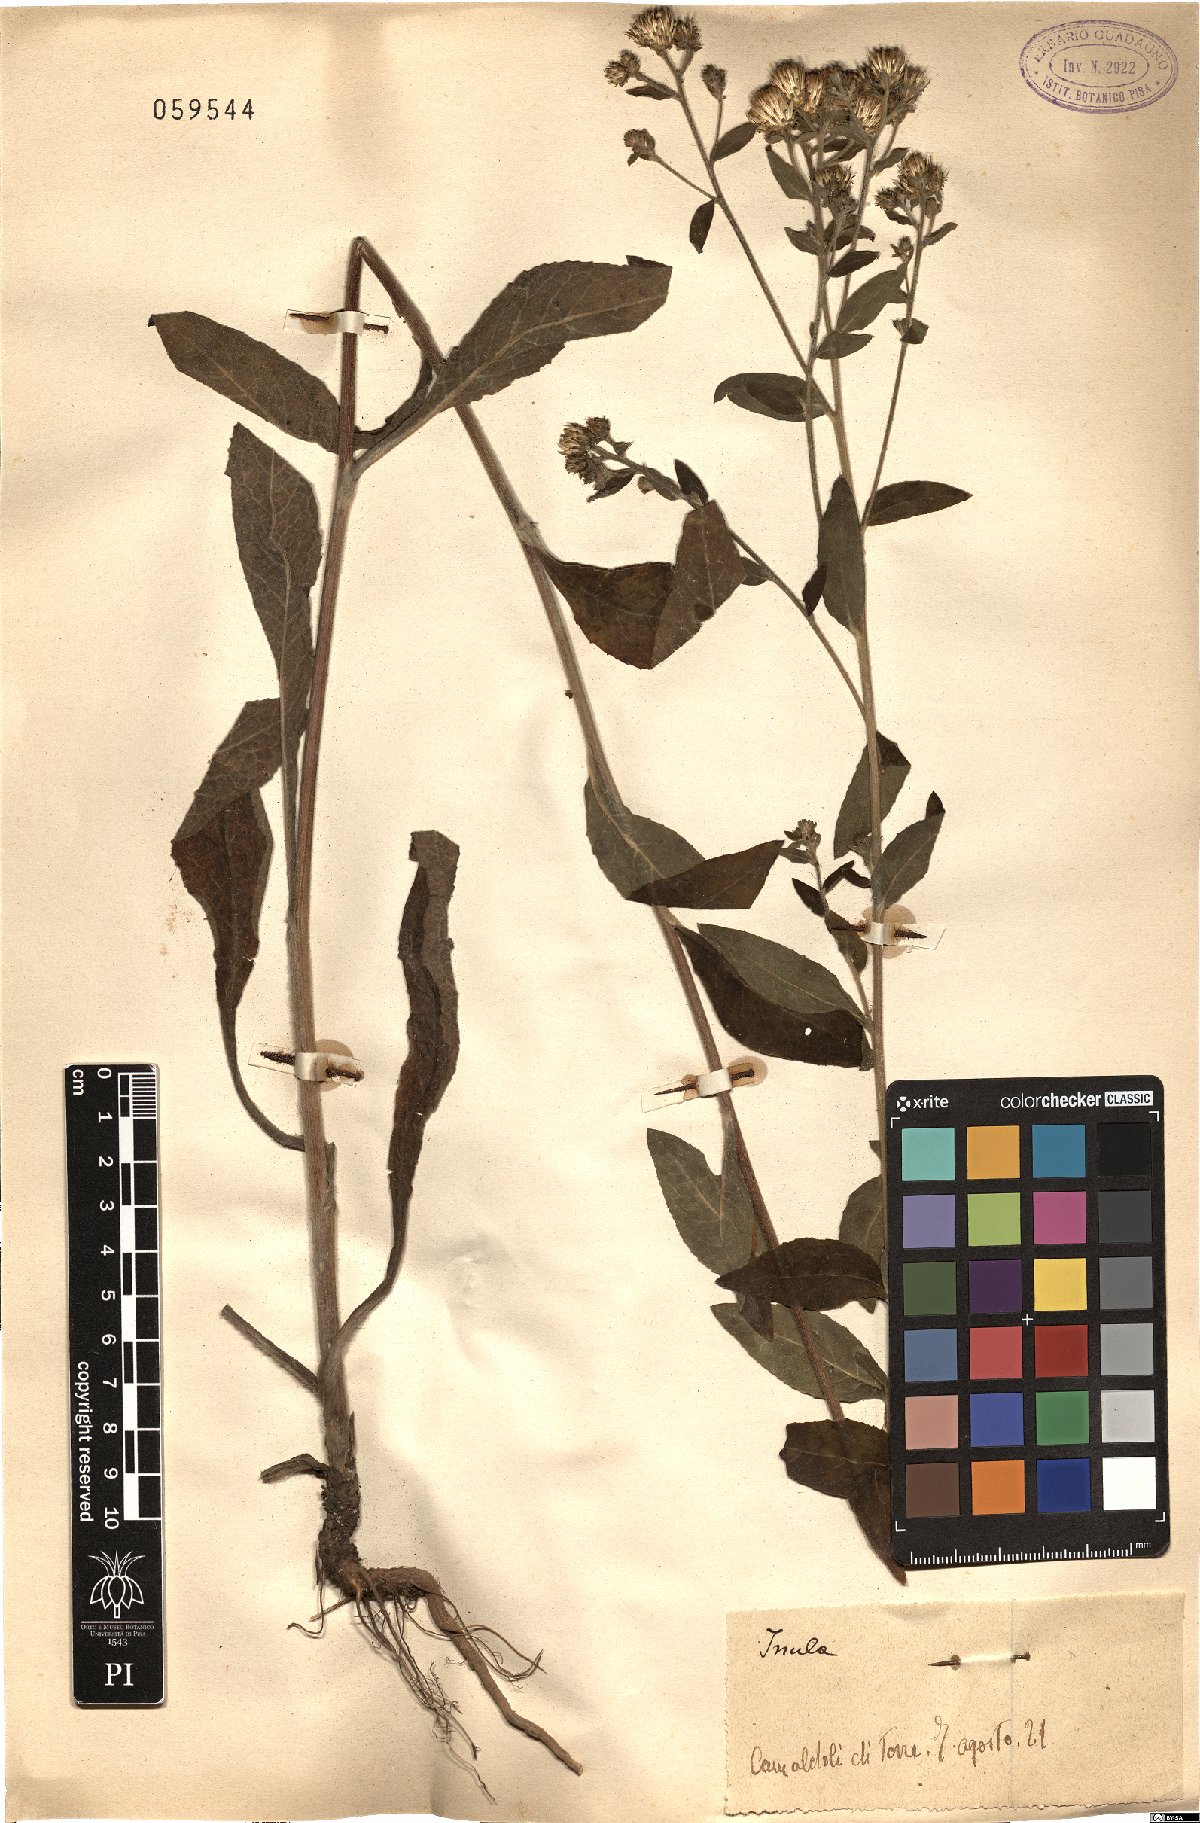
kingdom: Plantae
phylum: Tracheophyta
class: Magnoliopsida
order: Asterales
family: Asteraceae
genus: Pentanema
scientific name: Pentanema squarrosum
